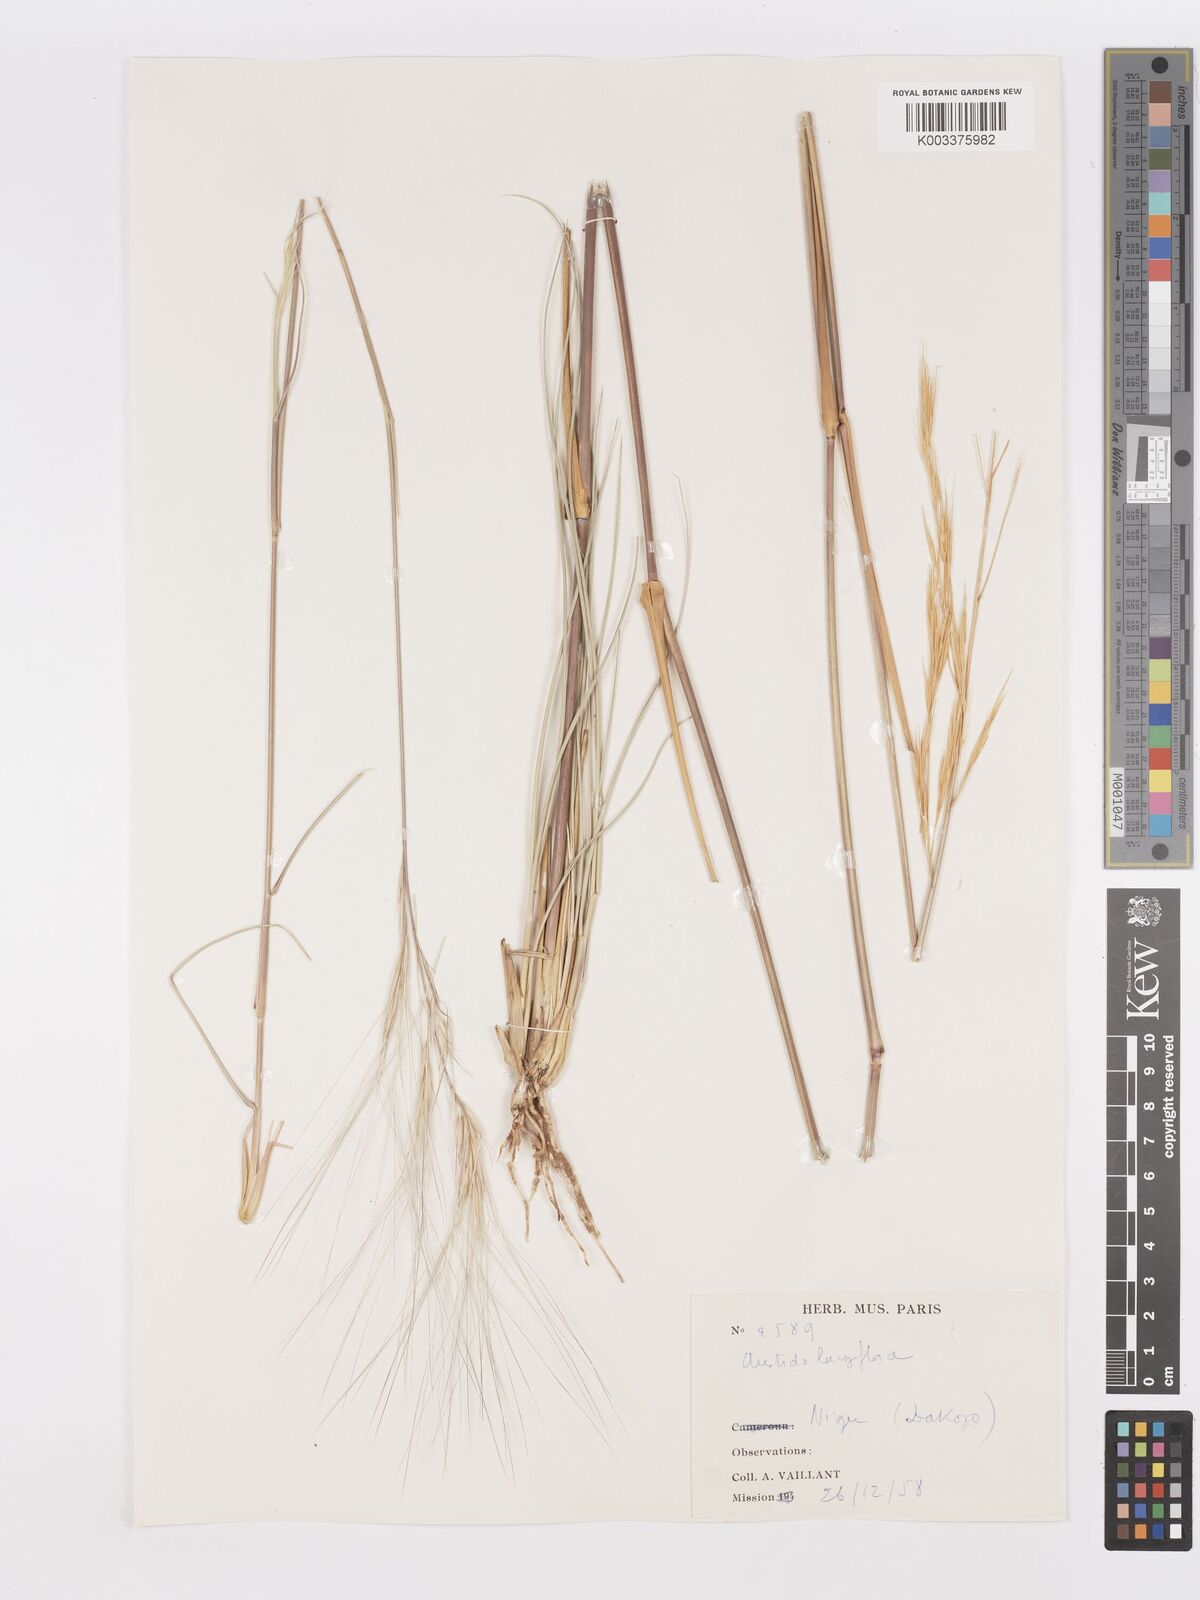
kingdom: Plantae
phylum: Tracheophyta
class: Liliopsida
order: Poales
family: Poaceae
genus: Aristida
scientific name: Aristida sieberiana
